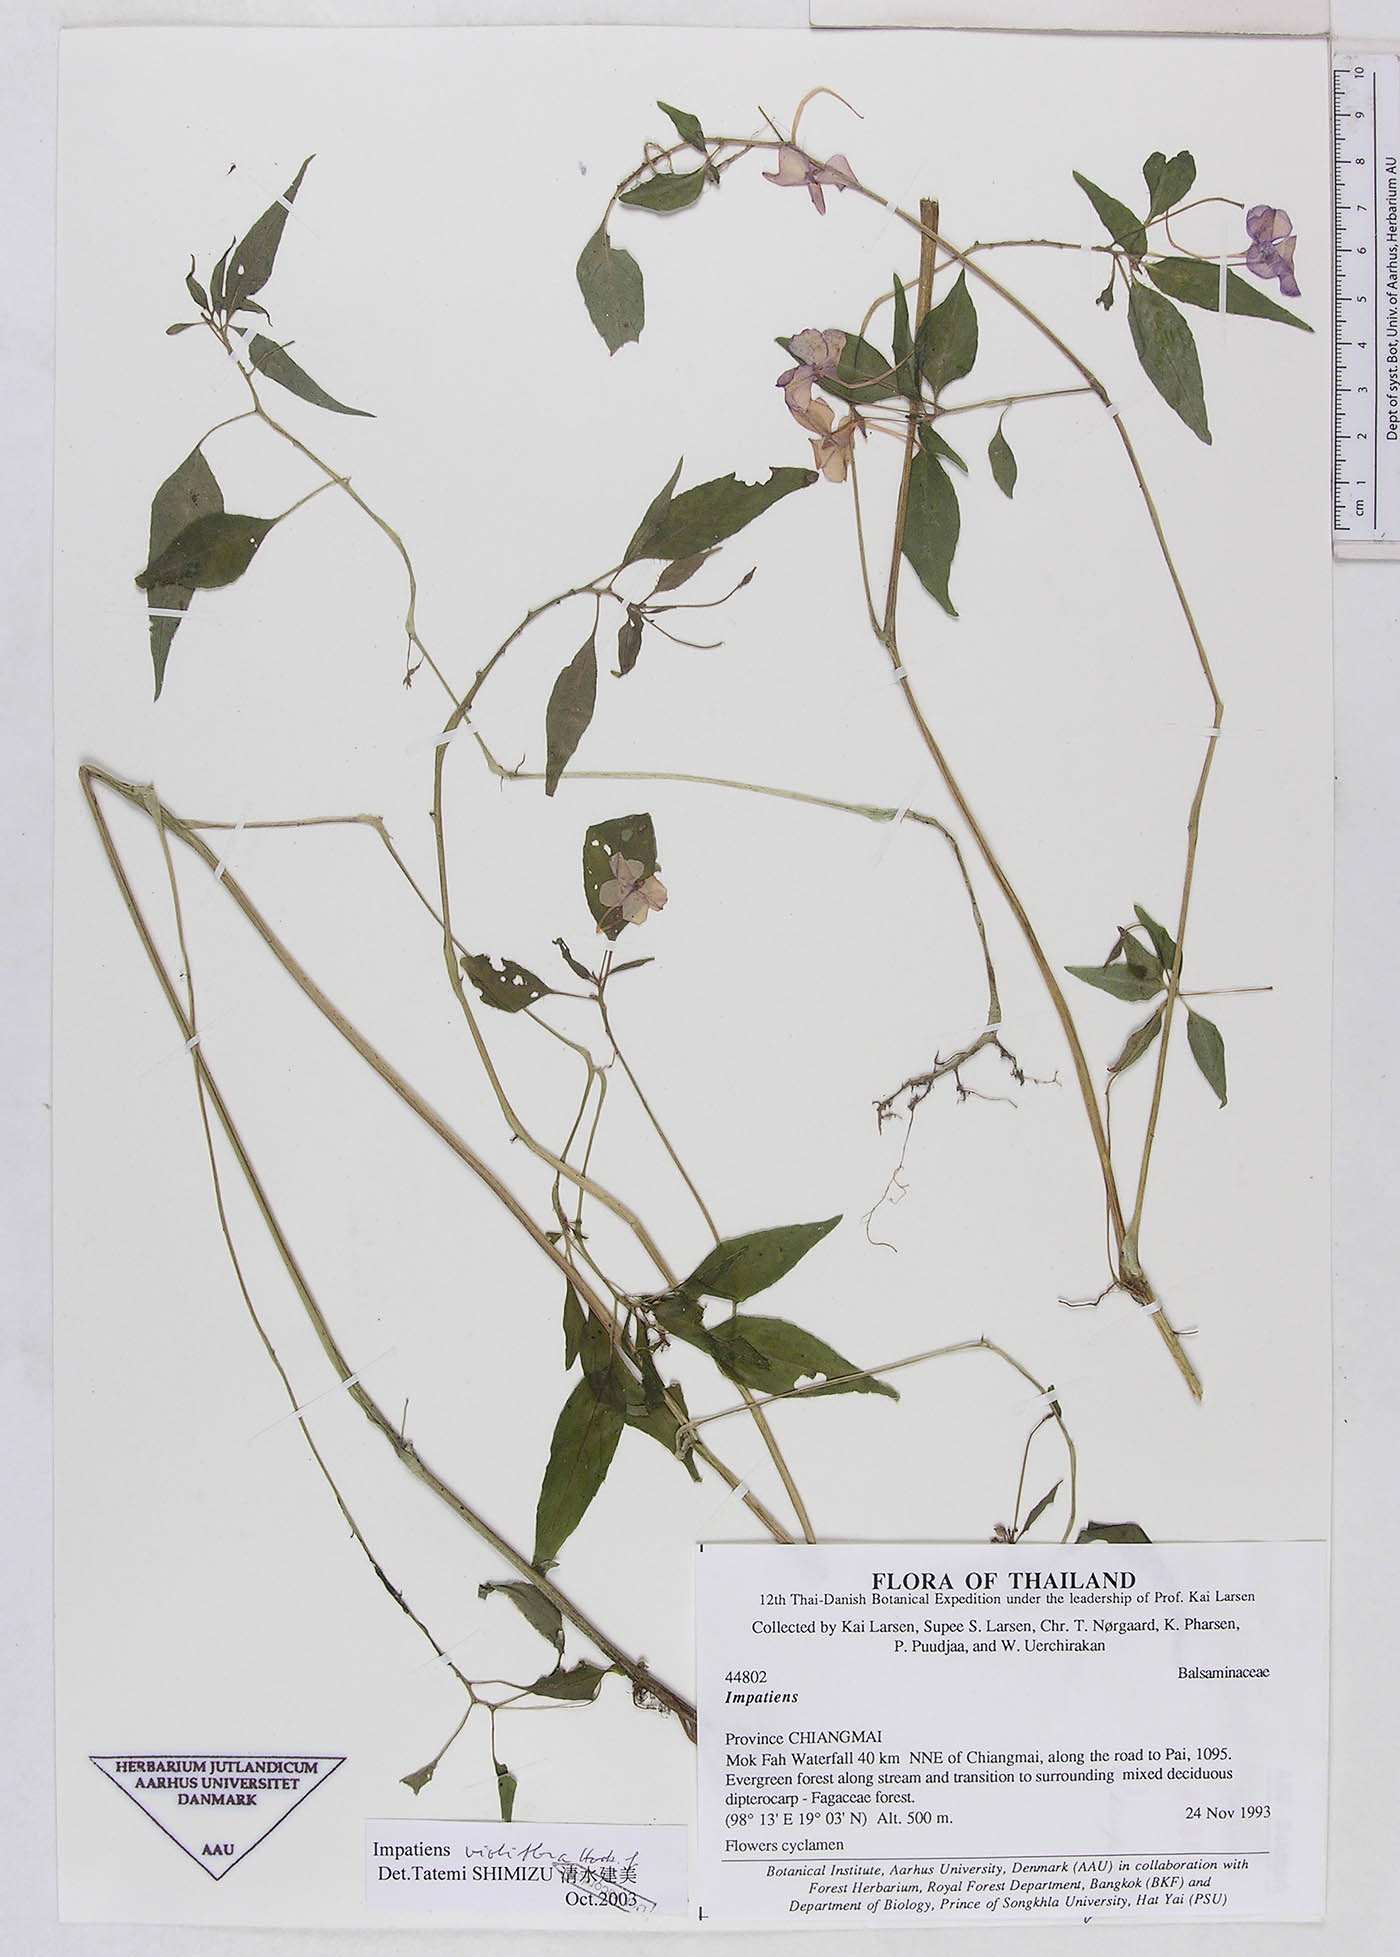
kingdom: Plantae
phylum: Tracheophyta
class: Magnoliopsida
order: Ericales
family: Balsaminaceae
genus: Impatiens
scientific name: Impatiens violiflora
